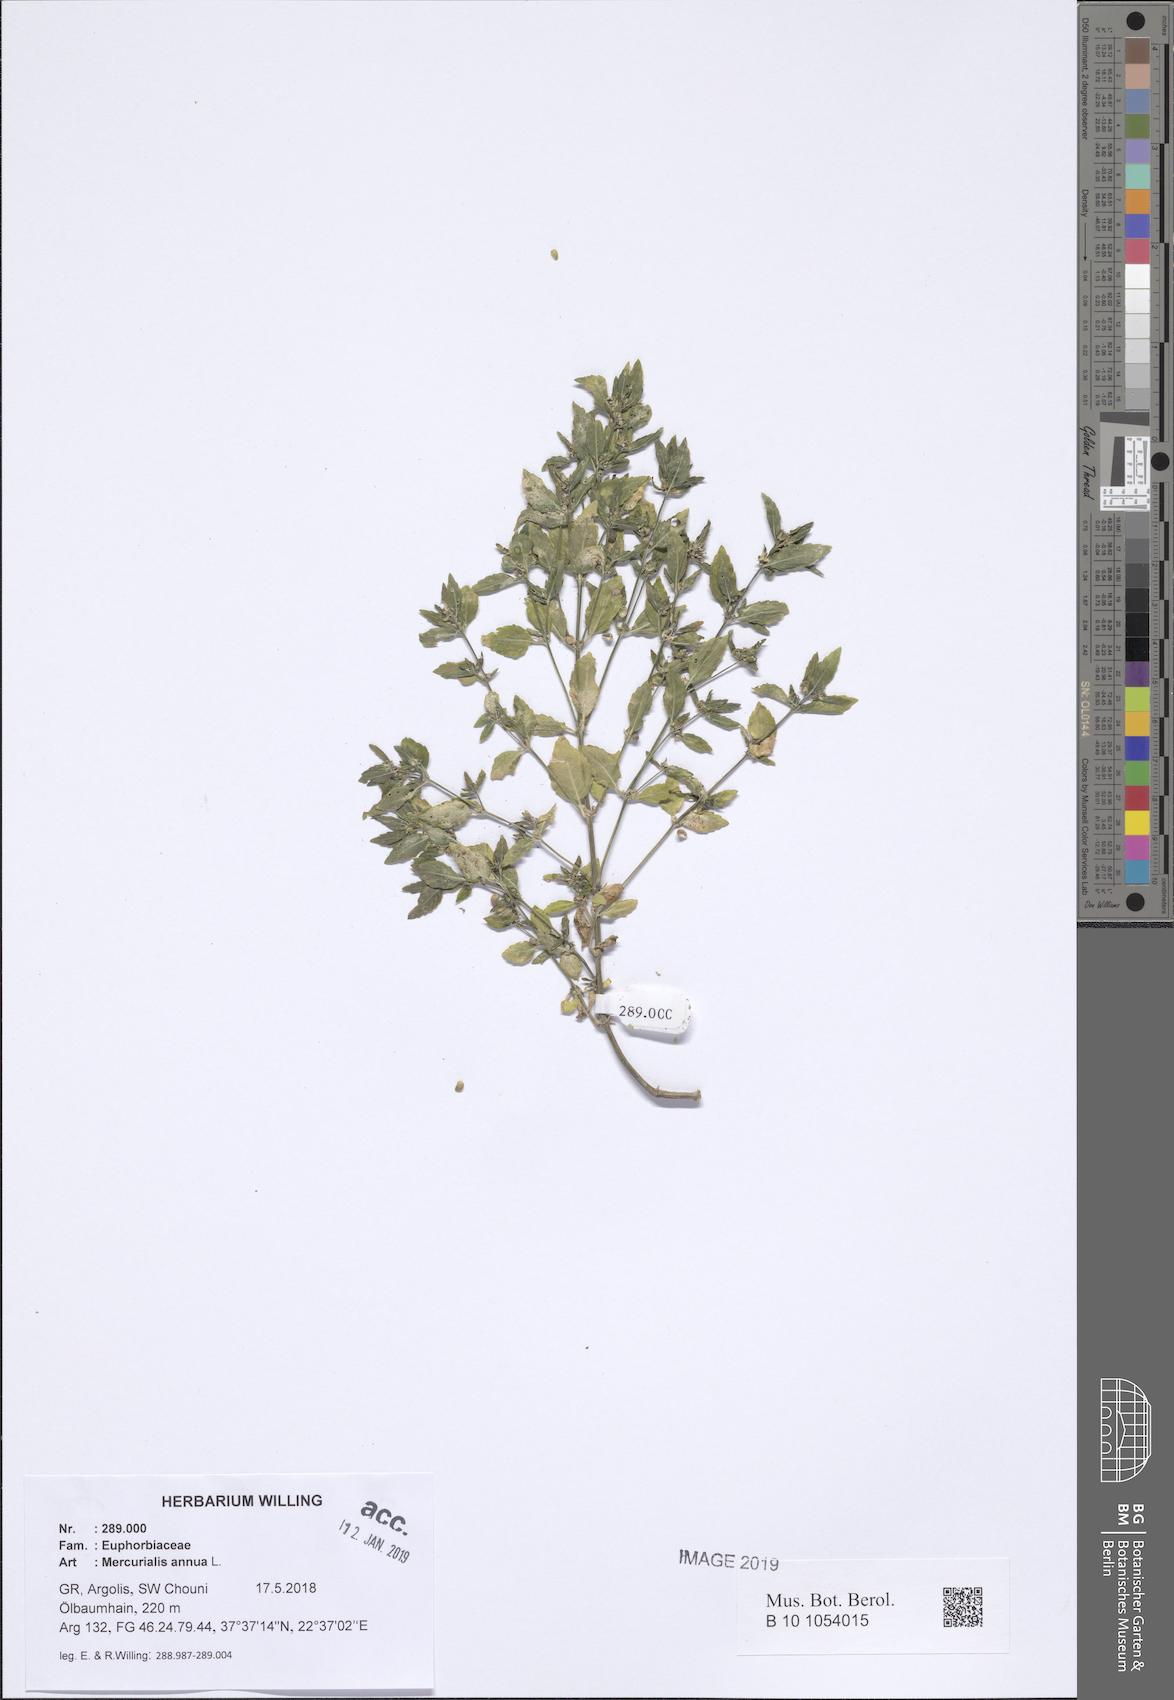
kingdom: Plantae
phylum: Tracheophyta
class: Magnoliopsida
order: Malpighiales
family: Euphorbiaceae
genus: Mercurialis
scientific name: Mercurialis annua
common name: Annual mercury
